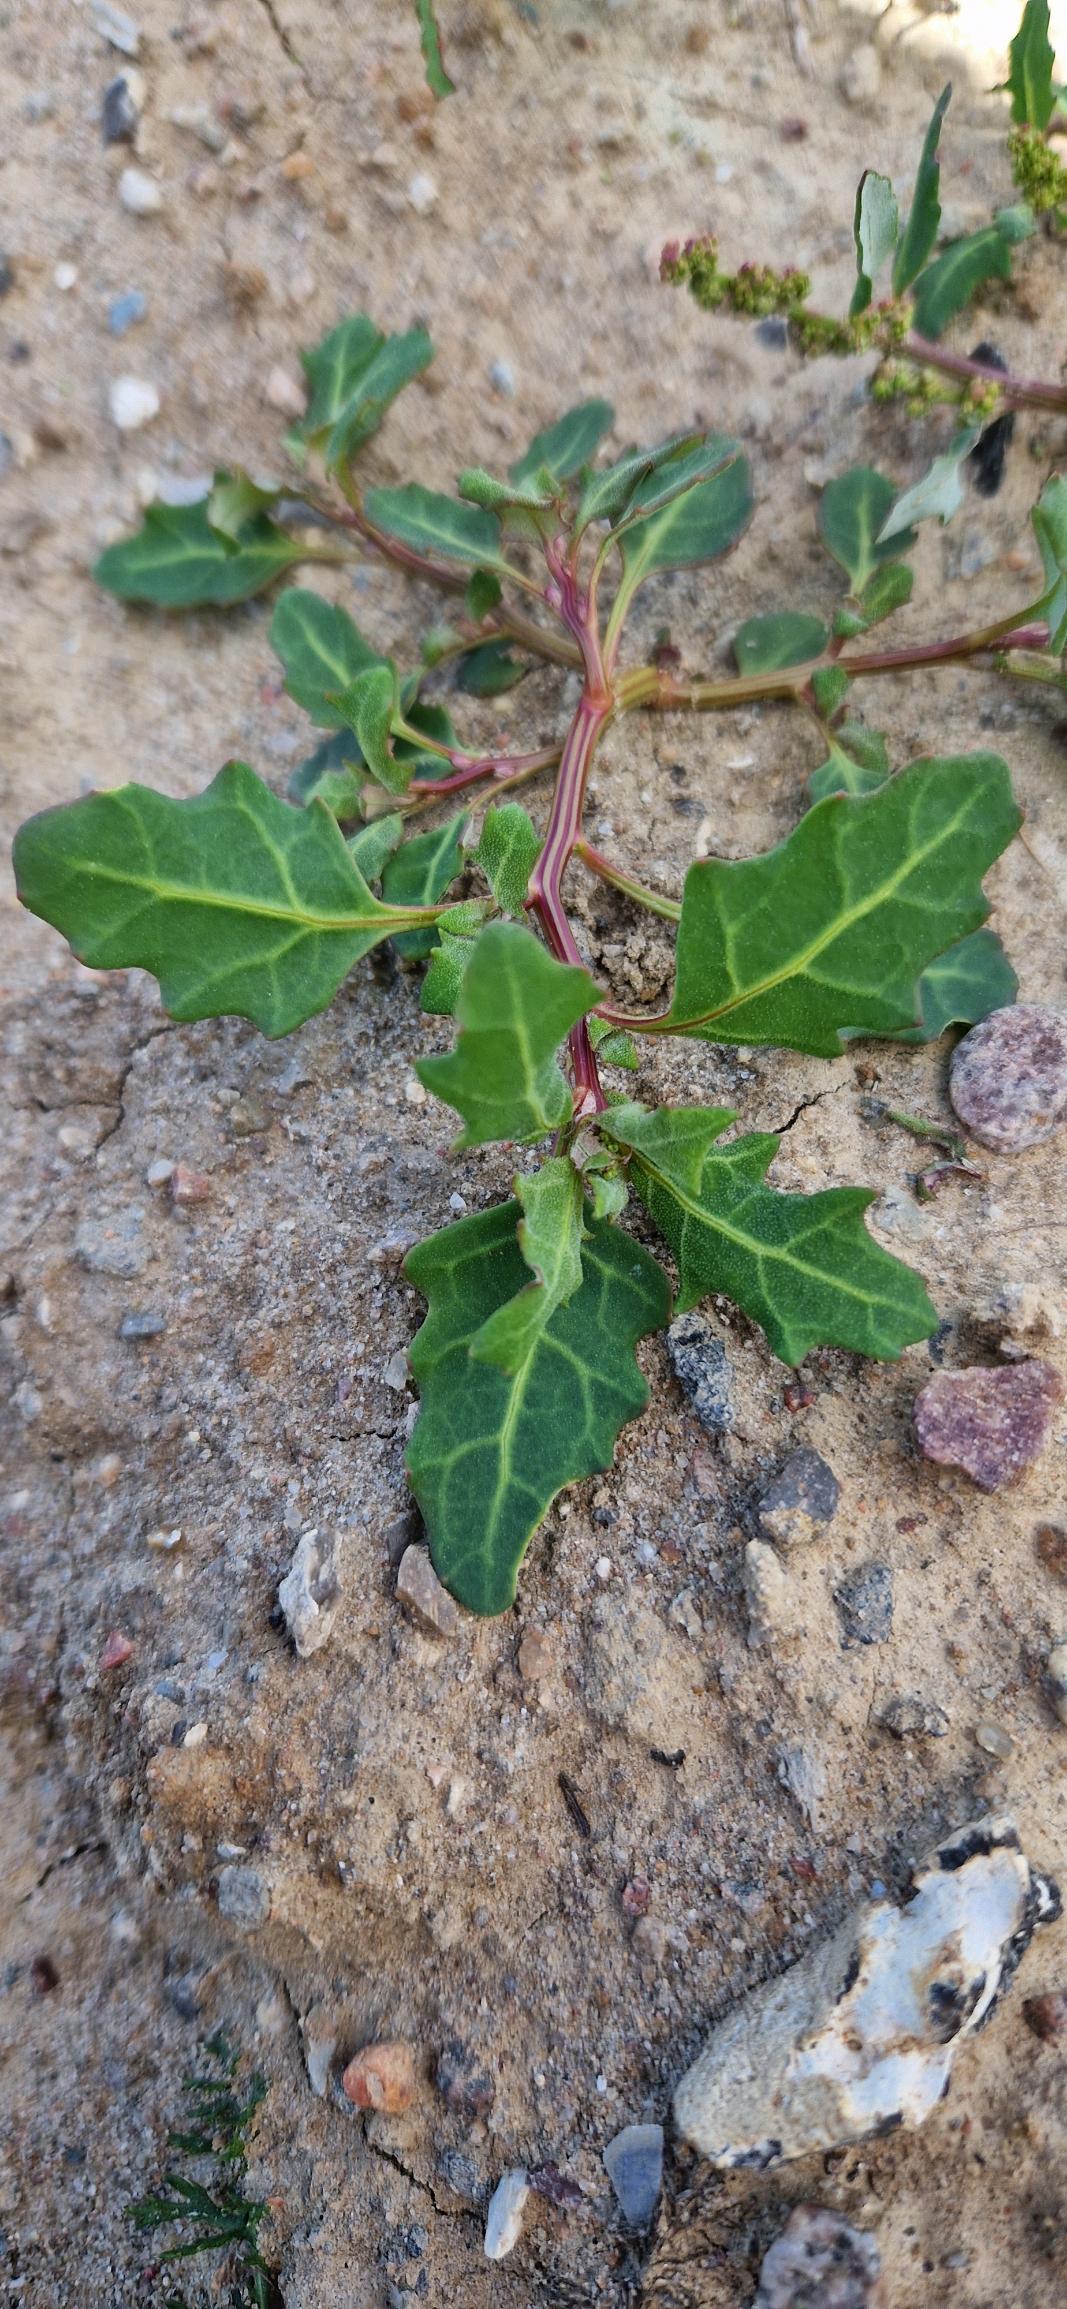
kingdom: Plantae
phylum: Tracheophyta
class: Magnoliopsida
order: Caryophyllales
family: Amaranthaceae
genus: Oxybasis
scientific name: Oxybasis glauca
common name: Blågrøn gåsefod
